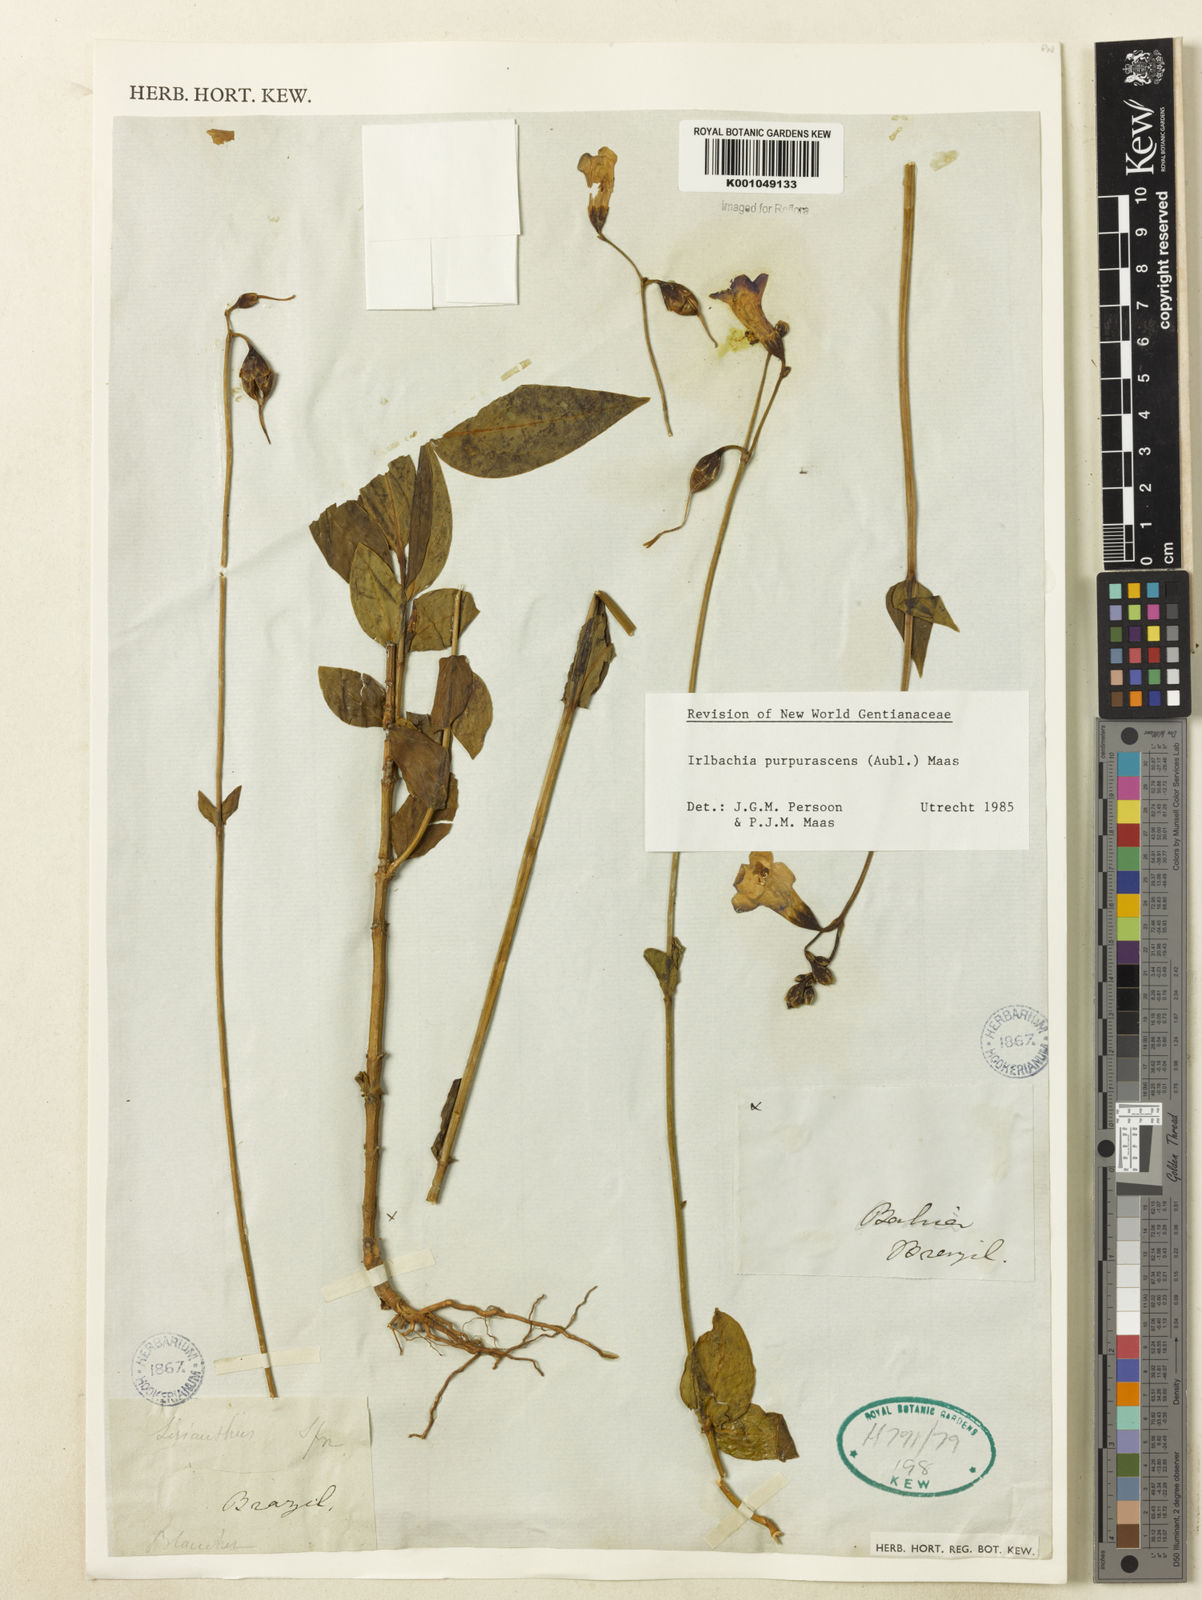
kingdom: Plantae
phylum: Tracheophyta
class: Magnoliopsida
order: Gentianales
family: Gentianaceae
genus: Chelonanthus
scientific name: Chelonanthus purpurascens
